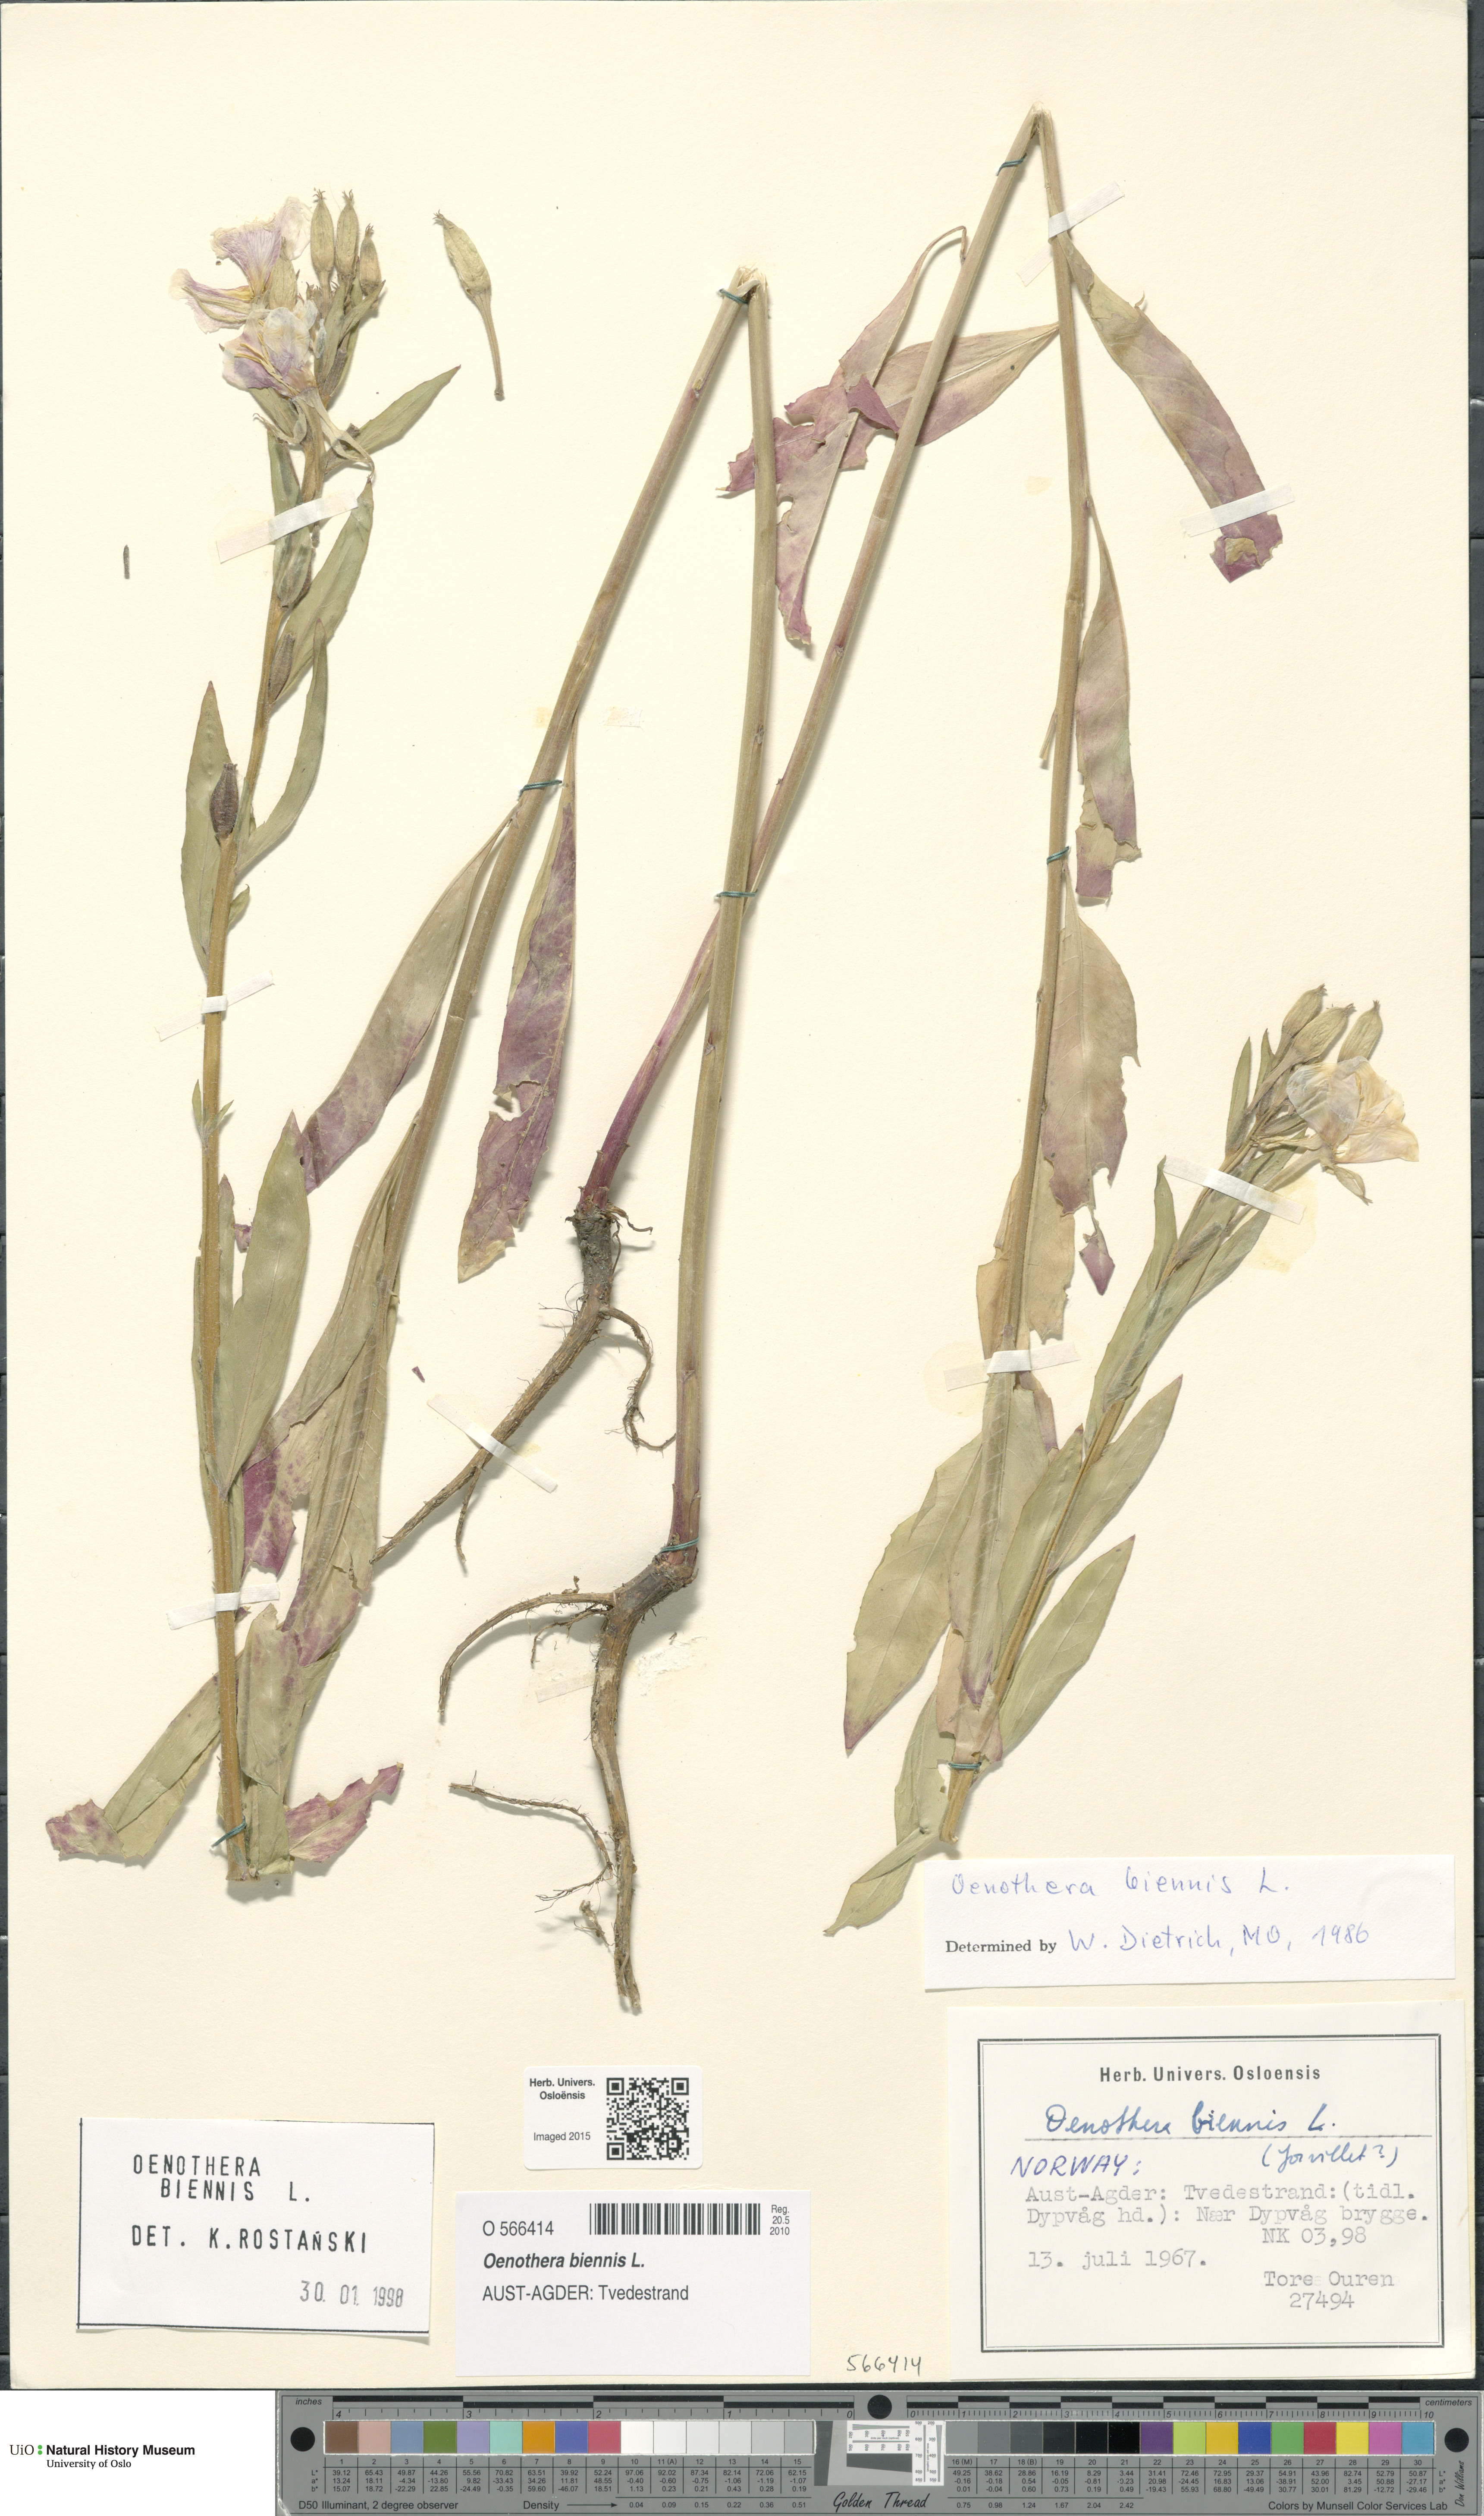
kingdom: Plantae
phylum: Tracheophyta
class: Magnoliopsida
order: Myrtales
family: Onagraceae
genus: Oenothera
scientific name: Oenothera biennis
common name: Common evening-primrose
